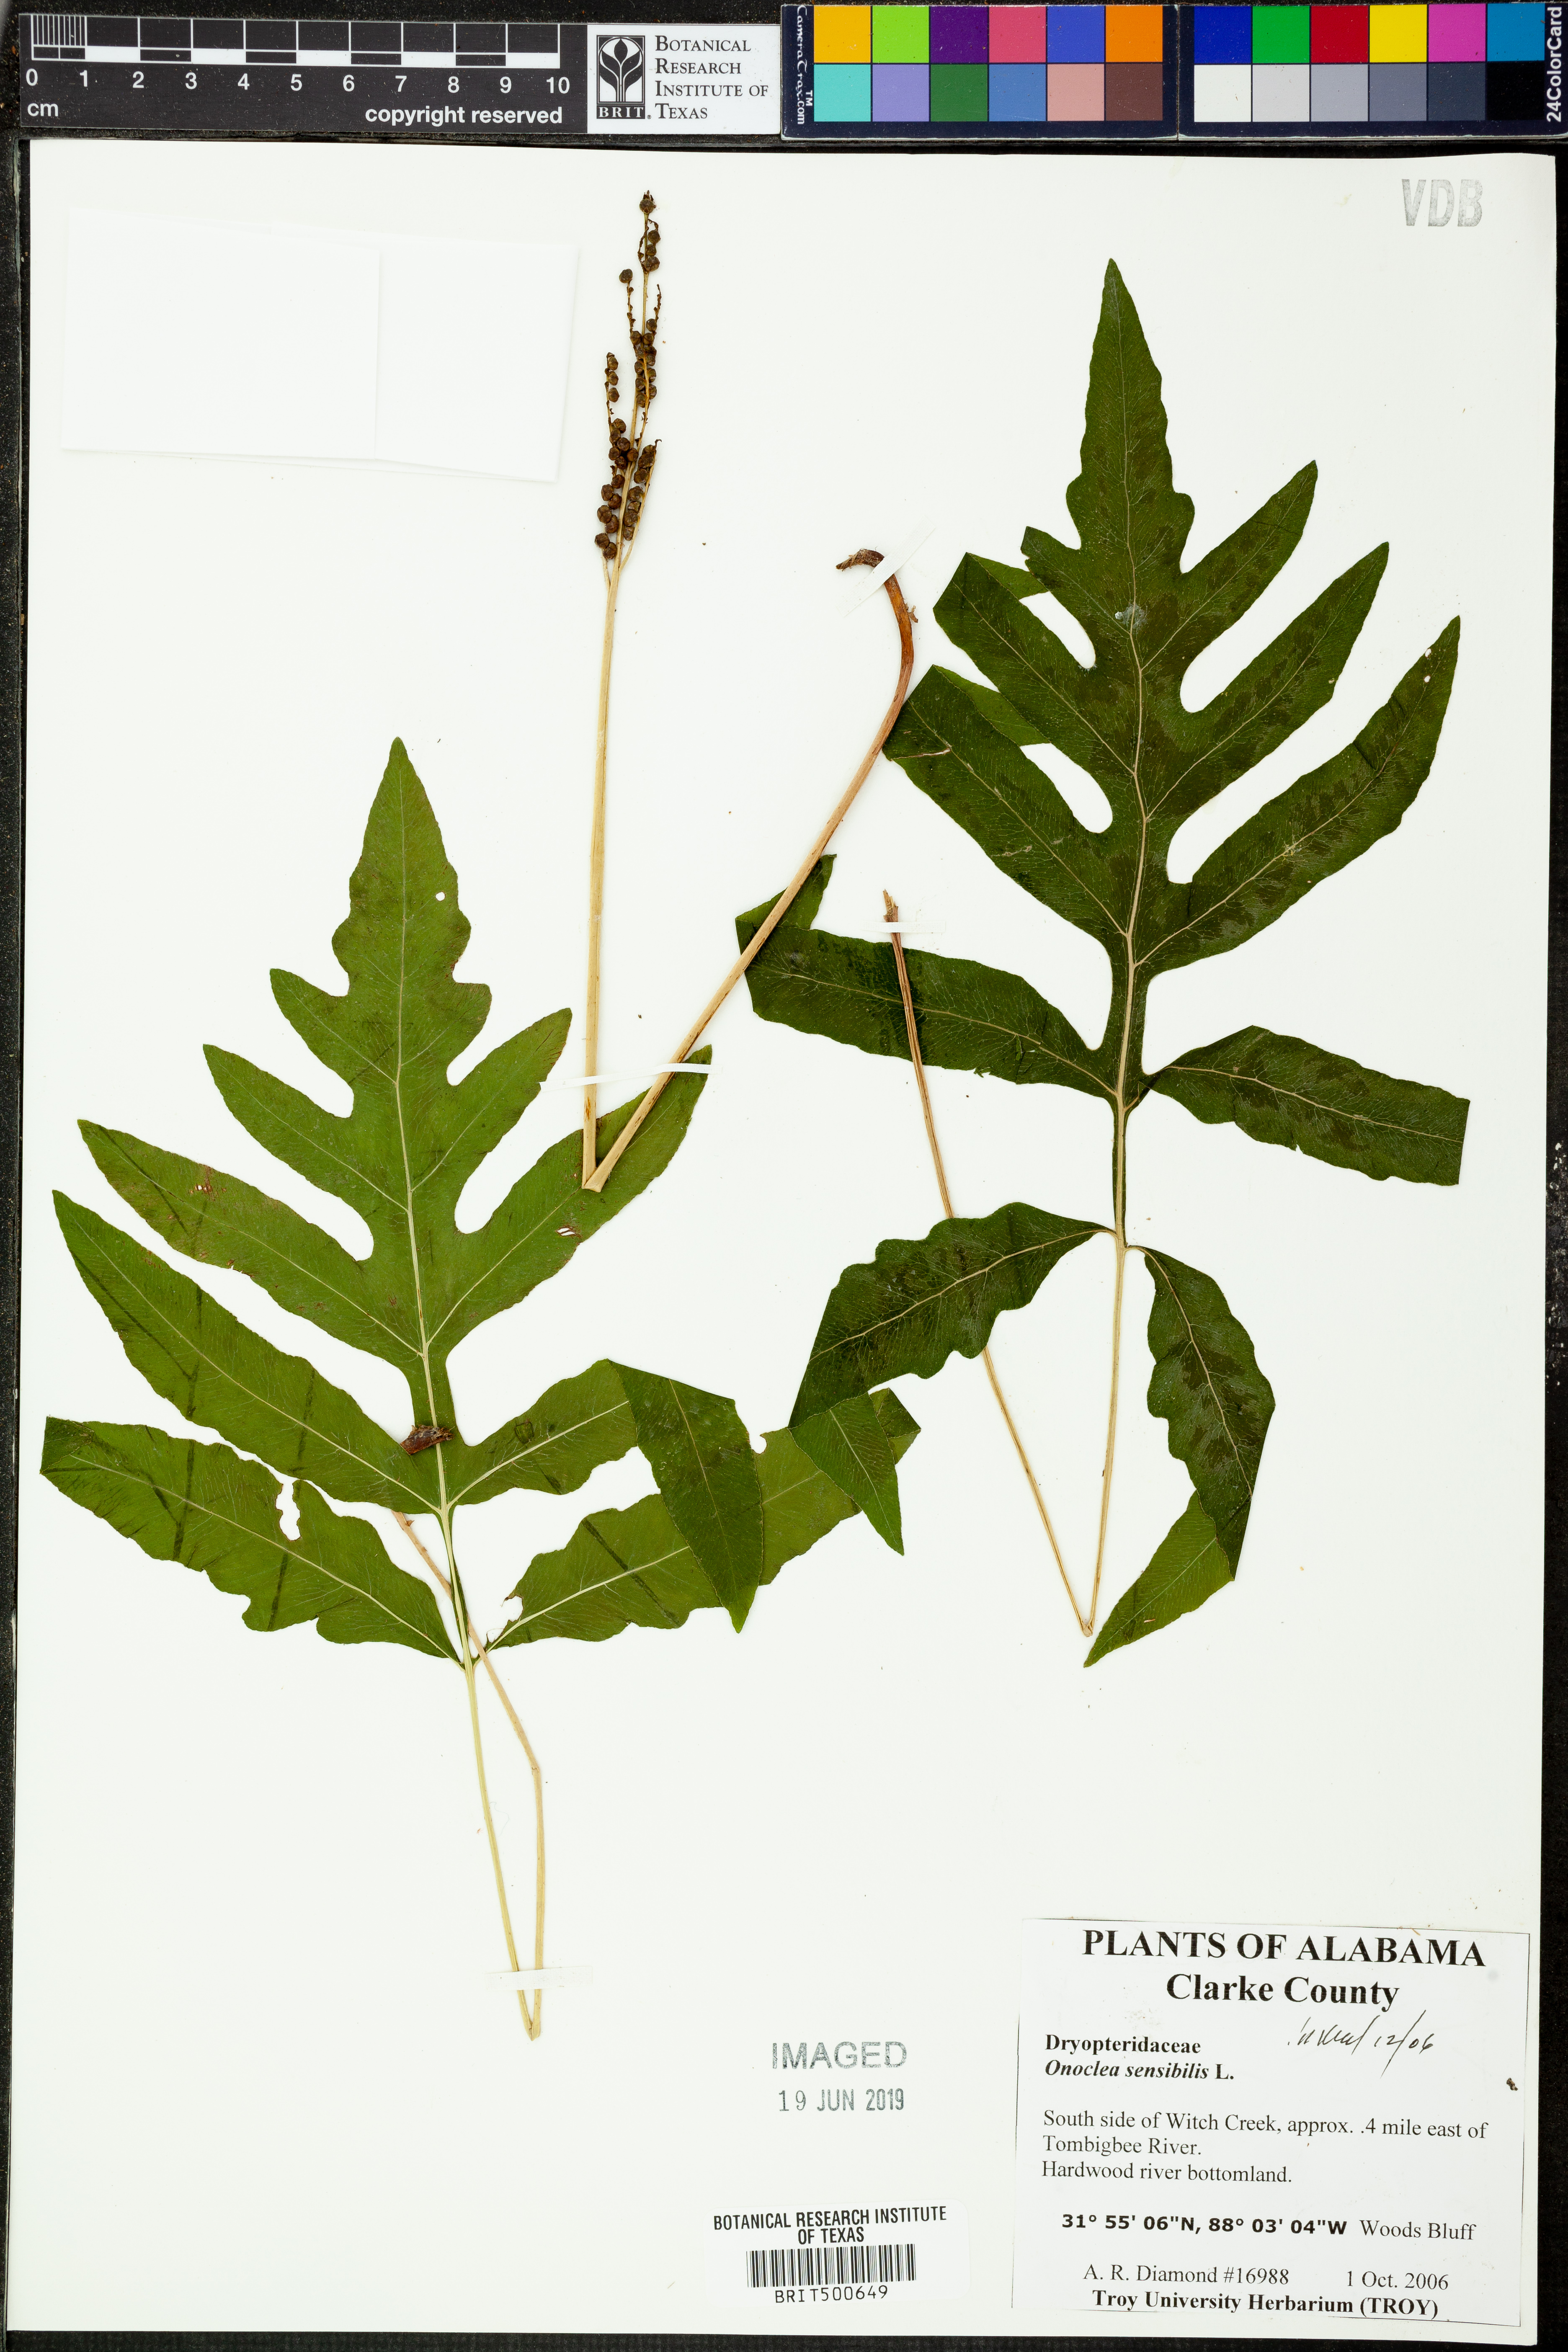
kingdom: Plantae
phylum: Tracheophyta
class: Polypodiopsida
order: Polypodiales
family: Onocleaceae
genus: Onoclea
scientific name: Onoclea sensibilis
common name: Sensitive fern
